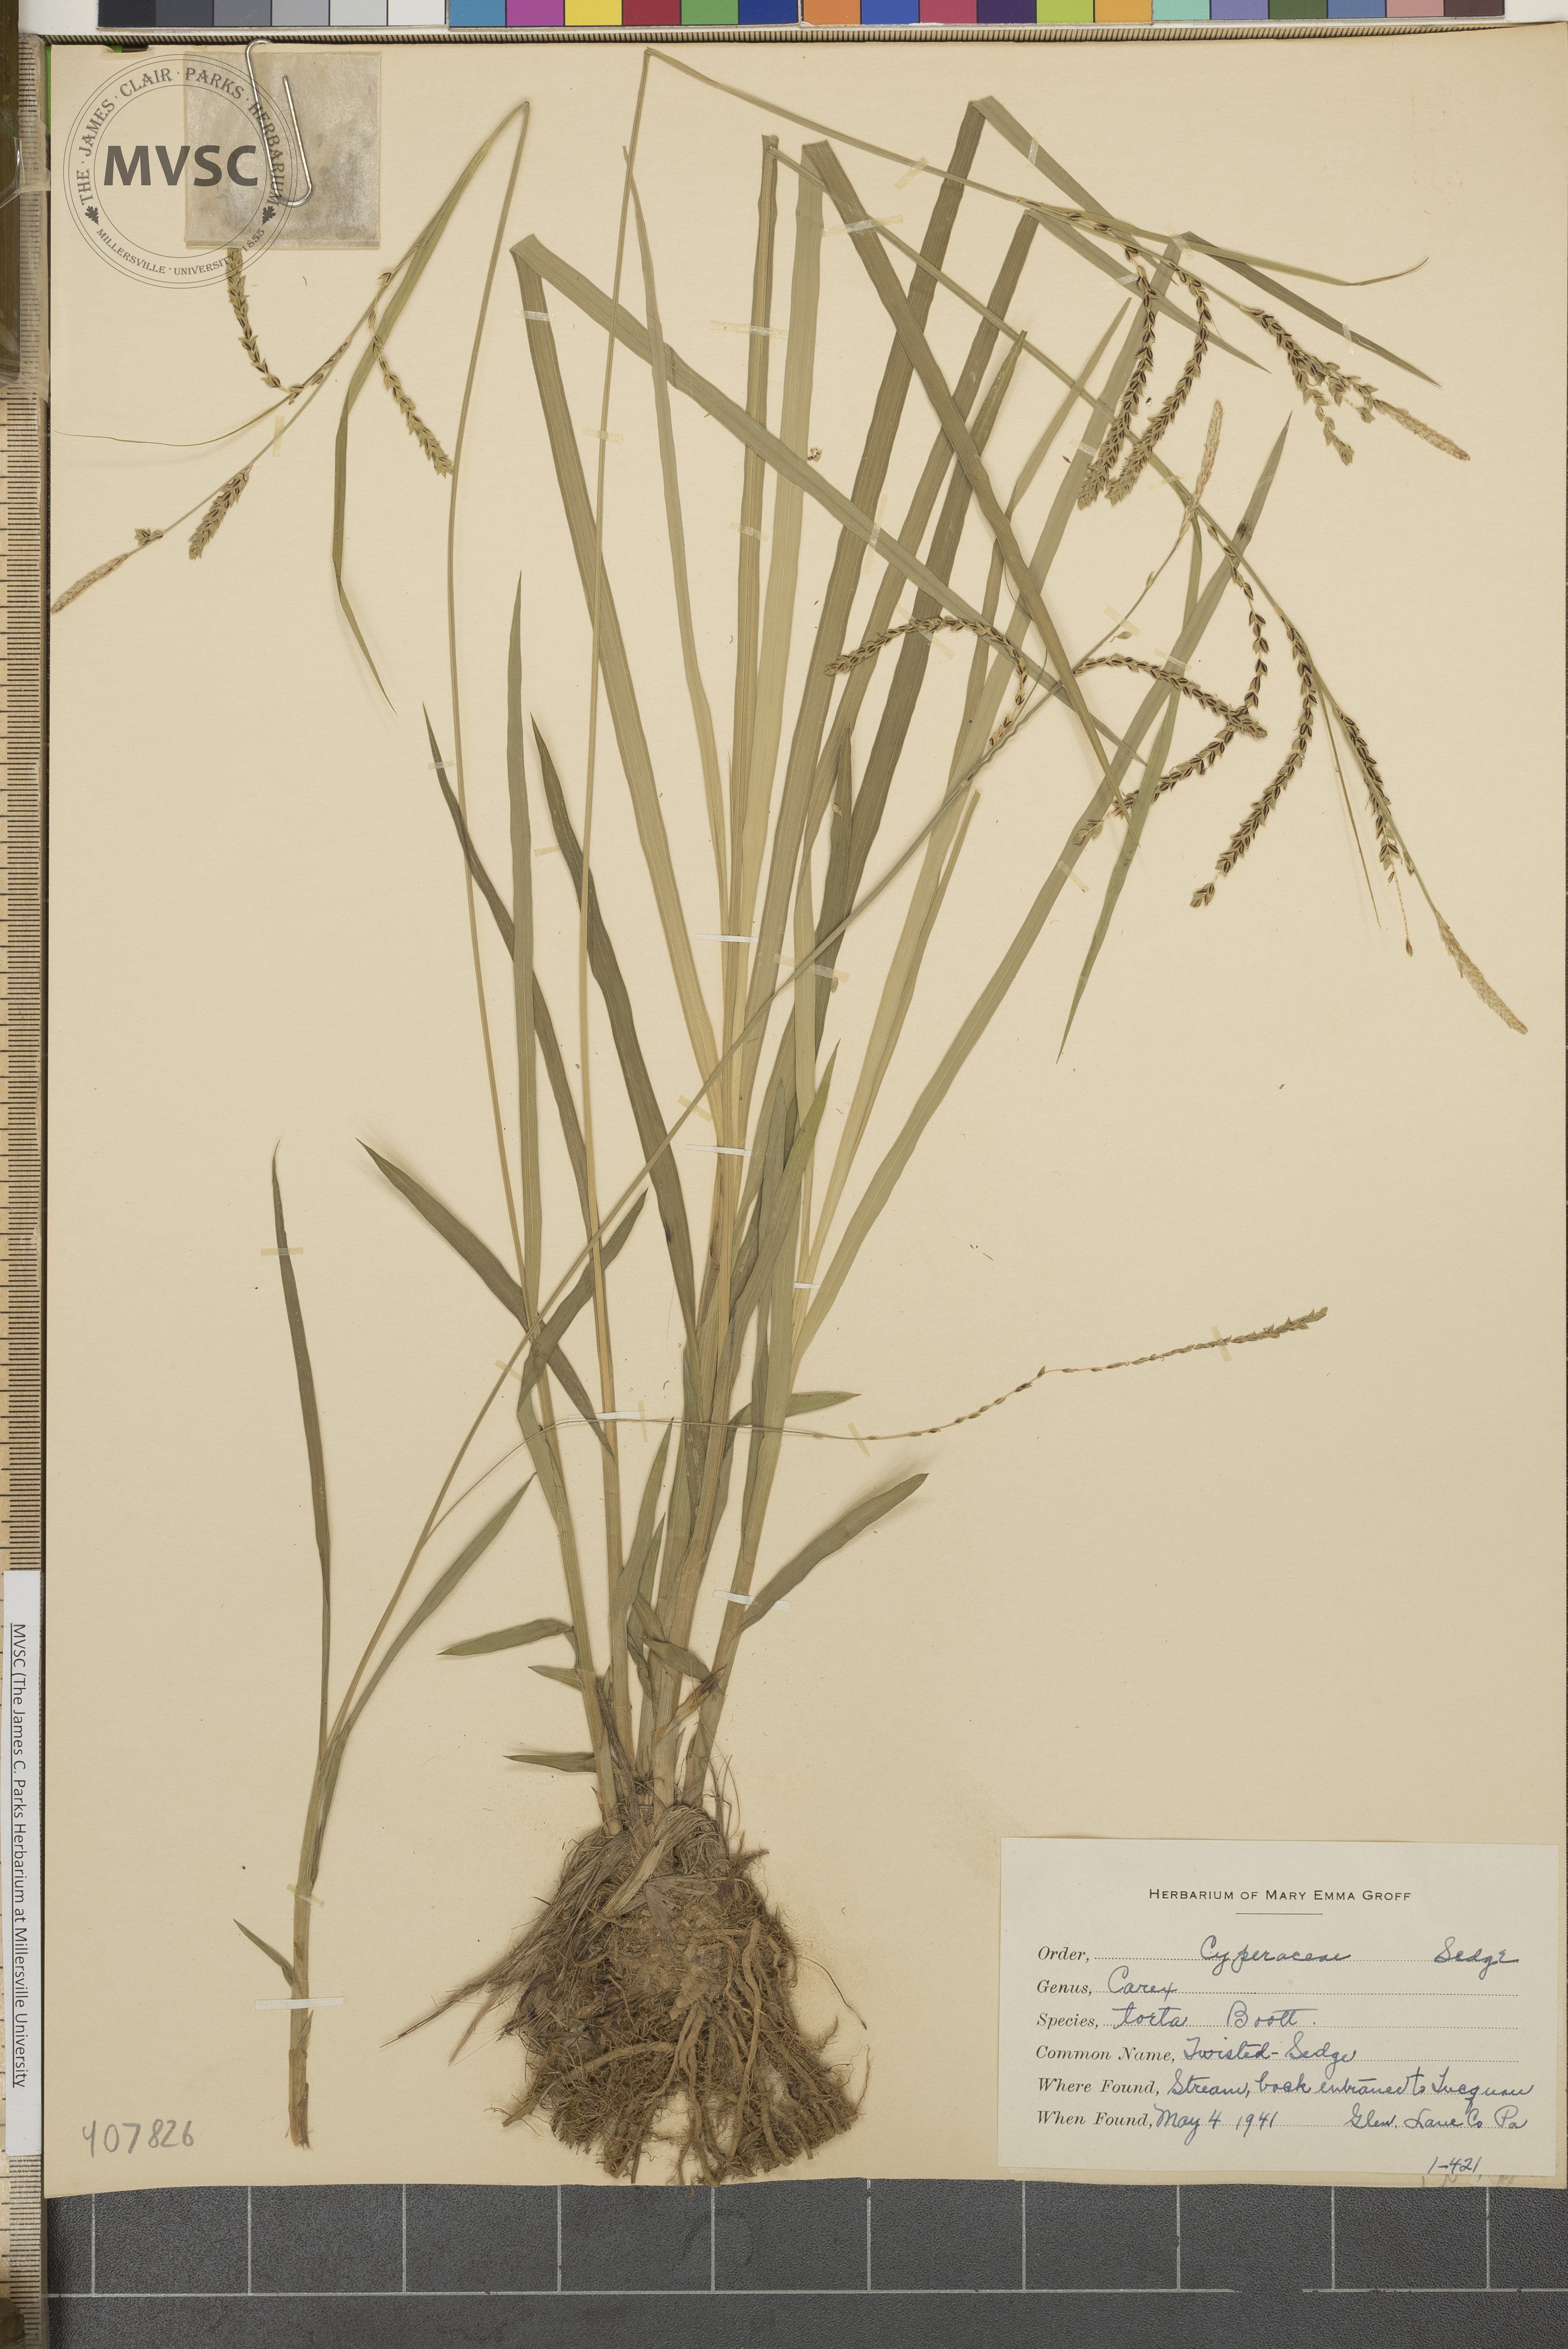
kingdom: Plantae
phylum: Tracheophyta
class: Liliopsida
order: Poales
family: Cyperaceae
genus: Carex
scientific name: Carex torta
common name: Twisted Sedge
